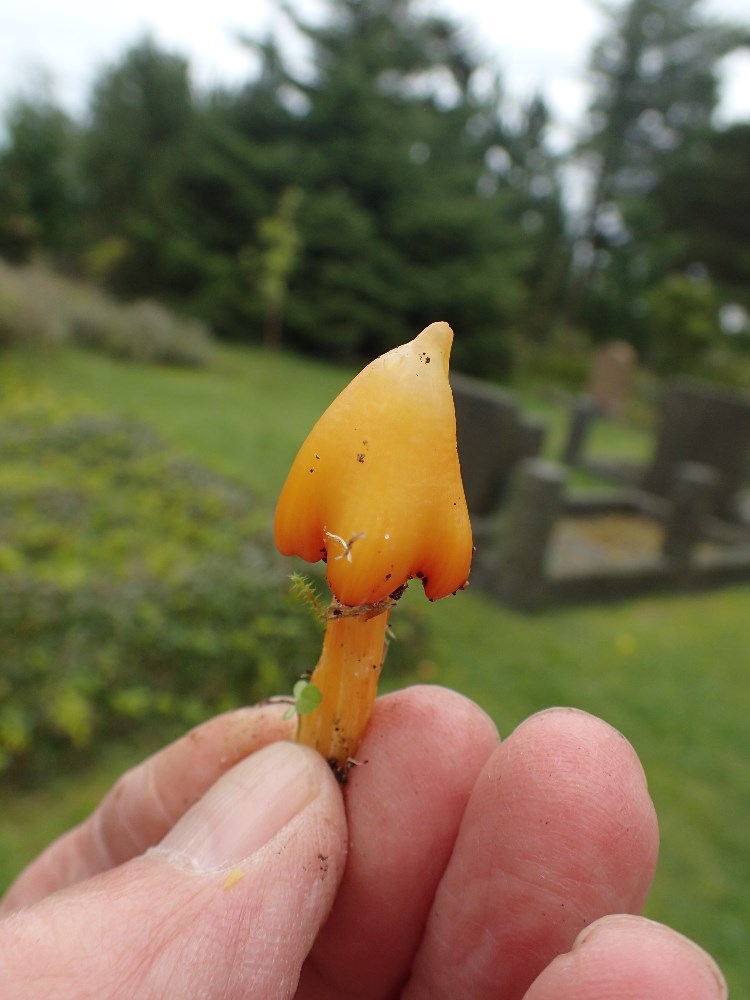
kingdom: Fungi
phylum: Basidiomycota
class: Agaricomycetes
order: Agaricales
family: Hygrophoraceae
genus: Hygrocybe
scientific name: Hygrocybe acutoconica
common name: spidspuklet vokshat
